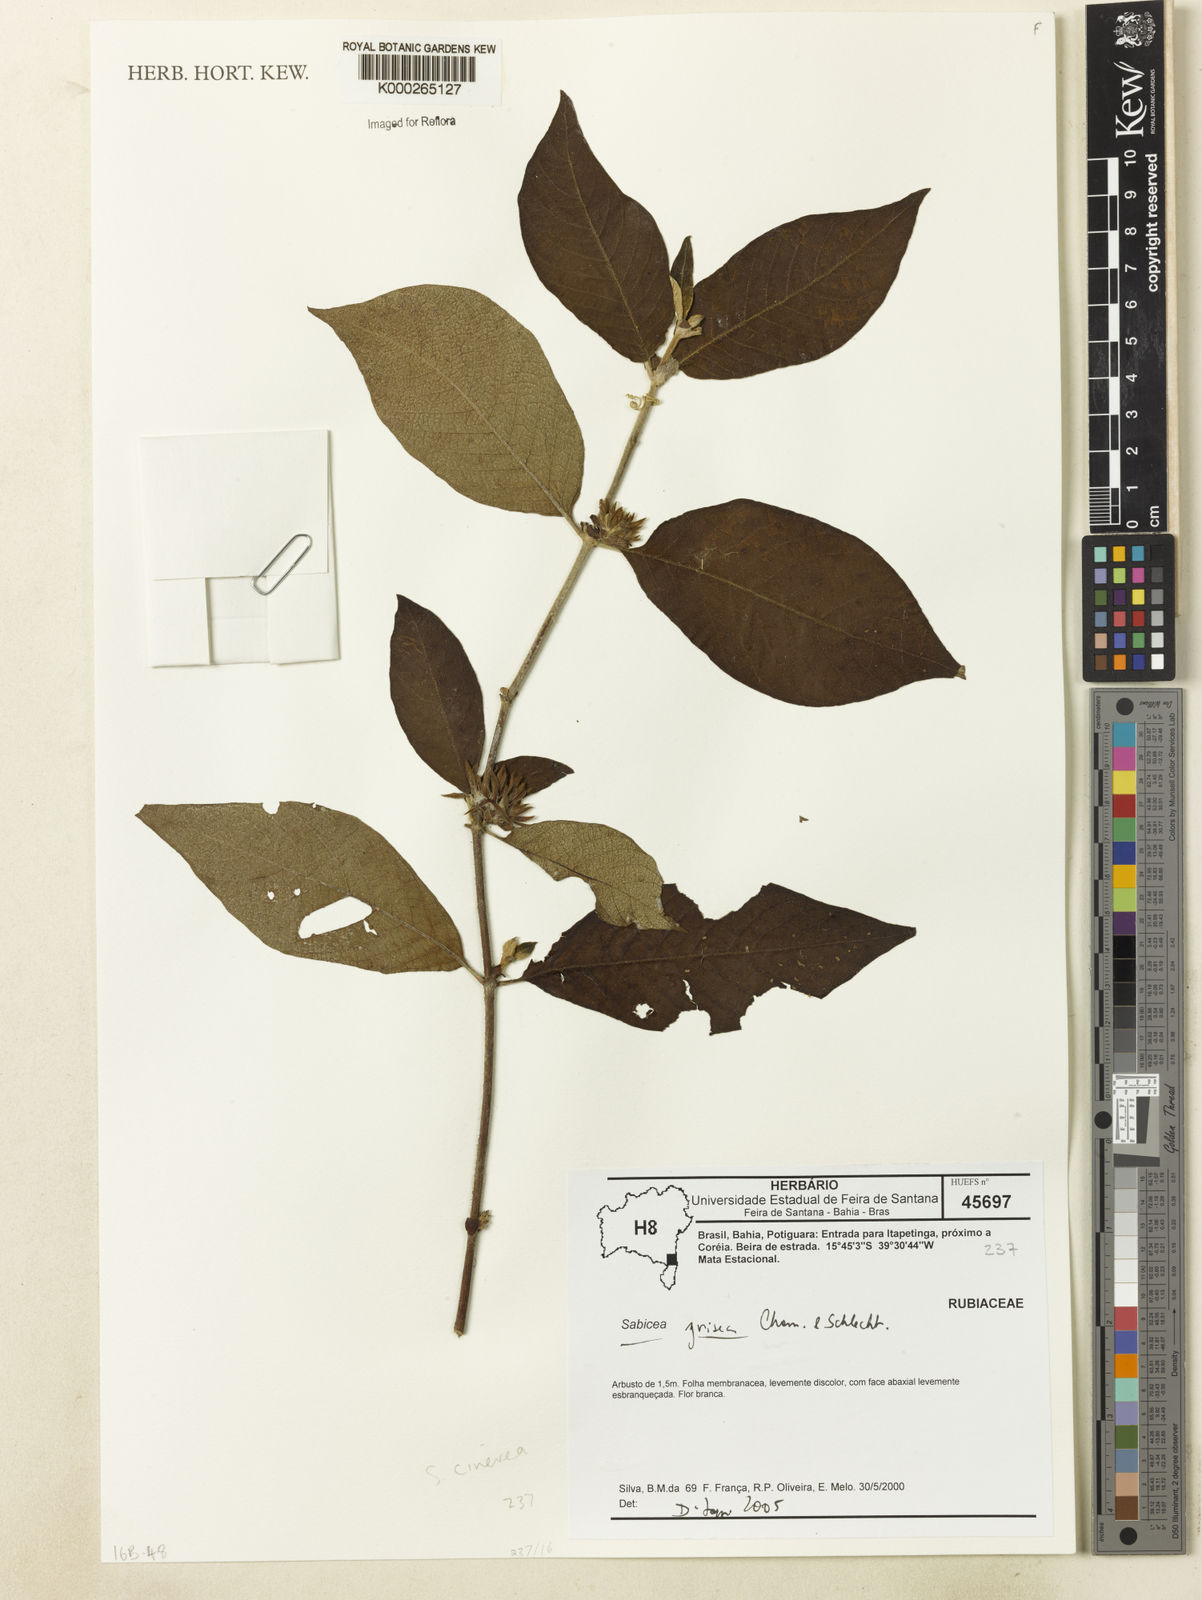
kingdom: Plantae
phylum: Tracheophyta
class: Magnoliopsida
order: Gentianales
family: Rubiaceae
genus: Sabicea
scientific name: Sabicea cinerea
